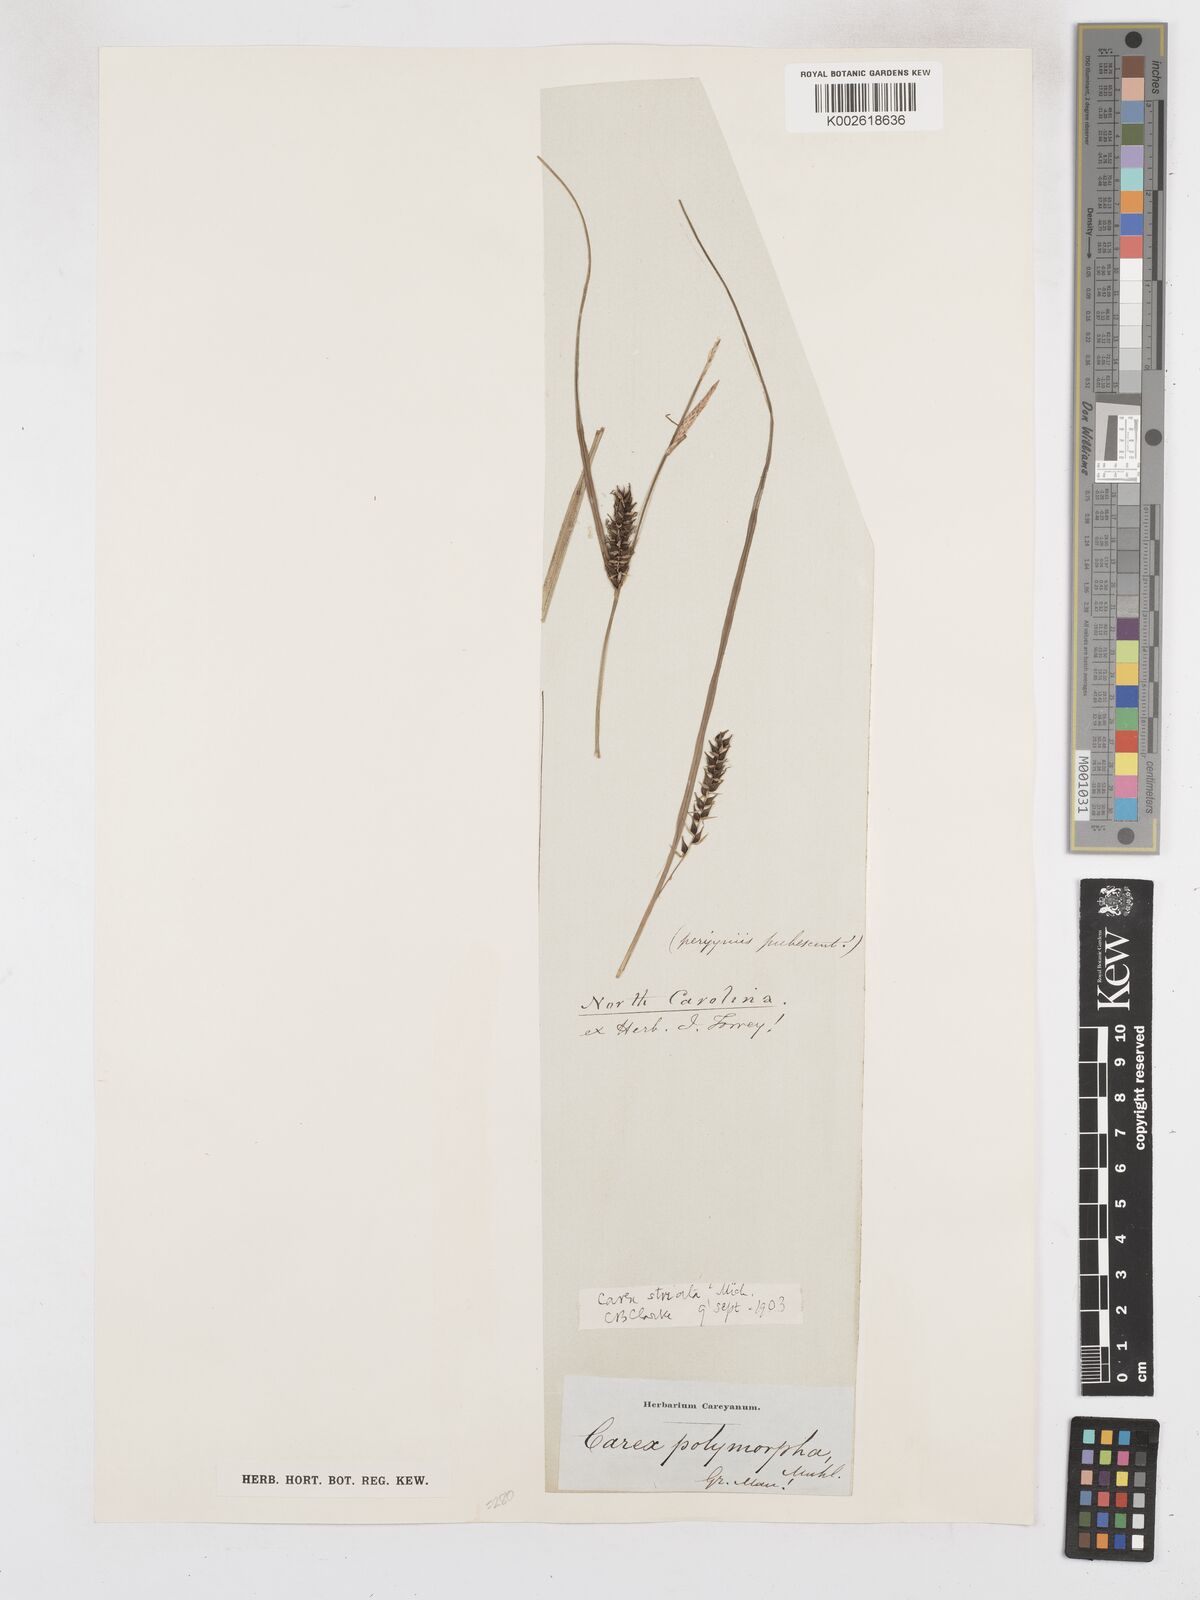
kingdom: Plantae
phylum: Tracheophyta
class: Liliopsida
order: Poales
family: Cyperaceae
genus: Carex
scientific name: Carex polymorpha
